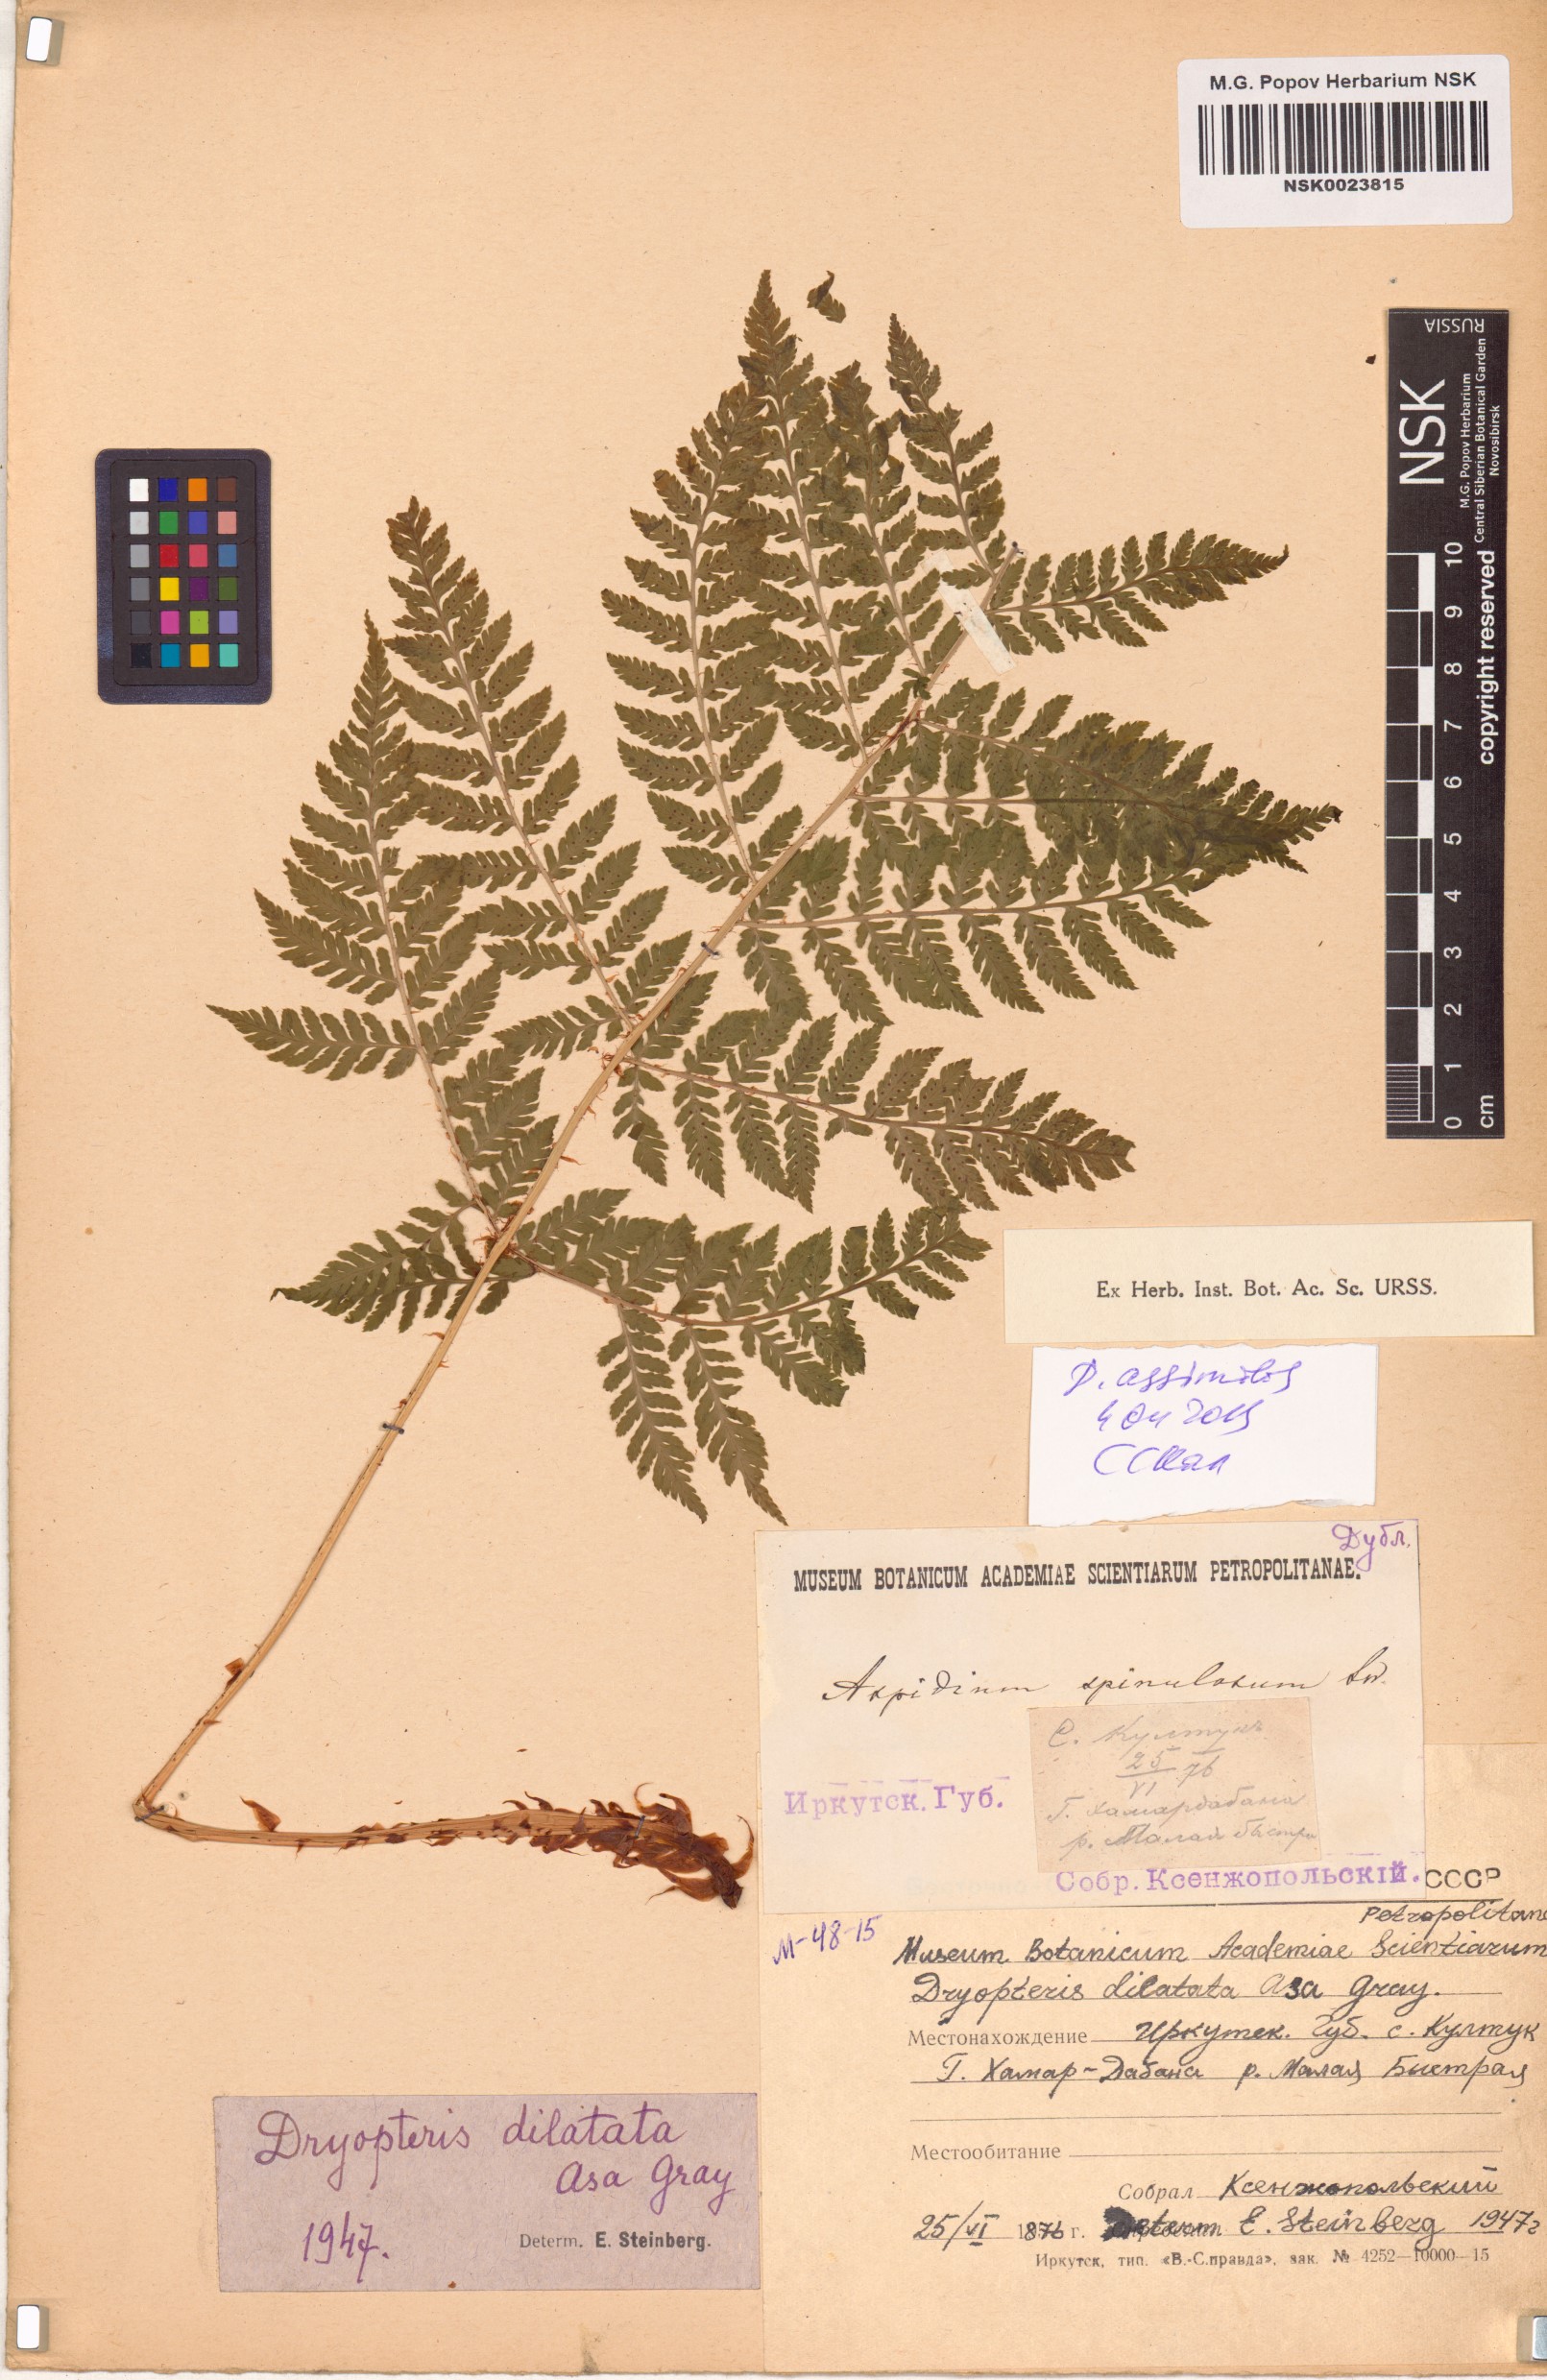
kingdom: Plantae
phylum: Tracheophyta
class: Polypodiopsida
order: Polypodiales
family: Dryopteridaceae
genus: Dryopteris
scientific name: Dryopteris expansa
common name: Northern buckler fern
